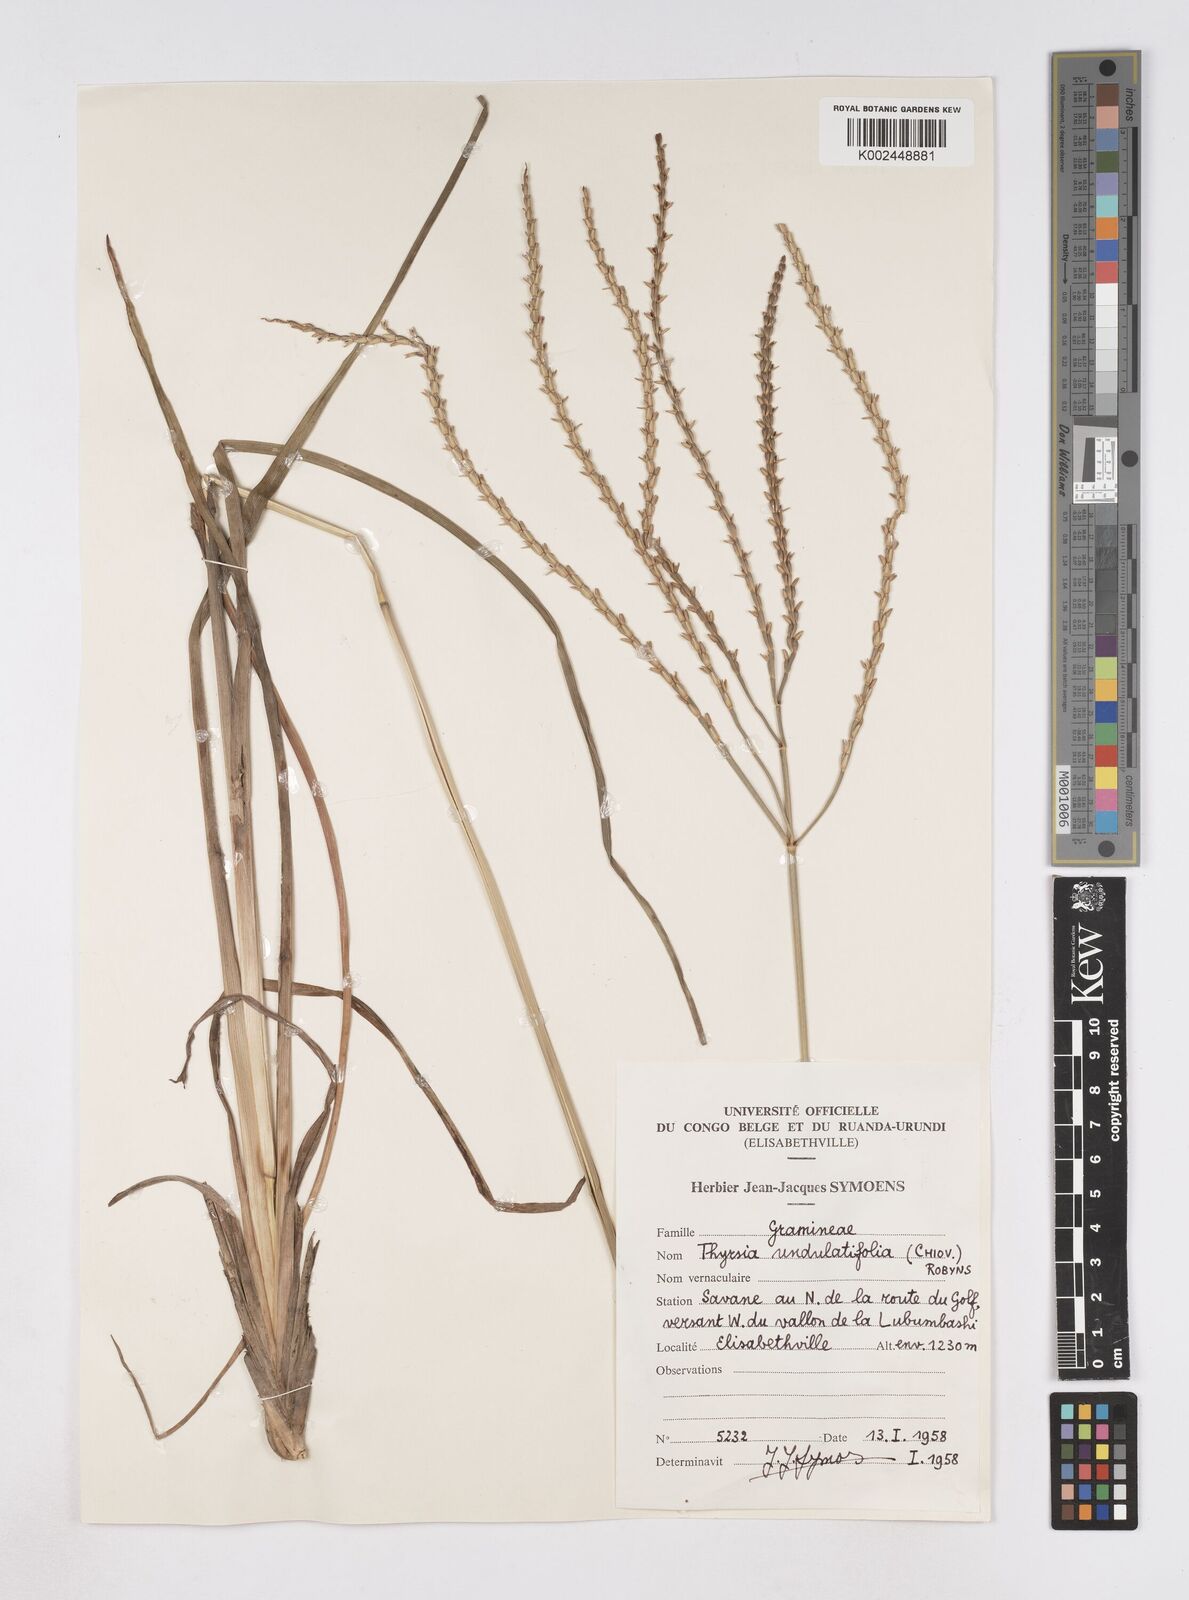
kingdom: Plantae
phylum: Tracheophyta
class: Liliopsida
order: Poales
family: Poaceae
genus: Thyrsia
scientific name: Thyrsia huillensis
